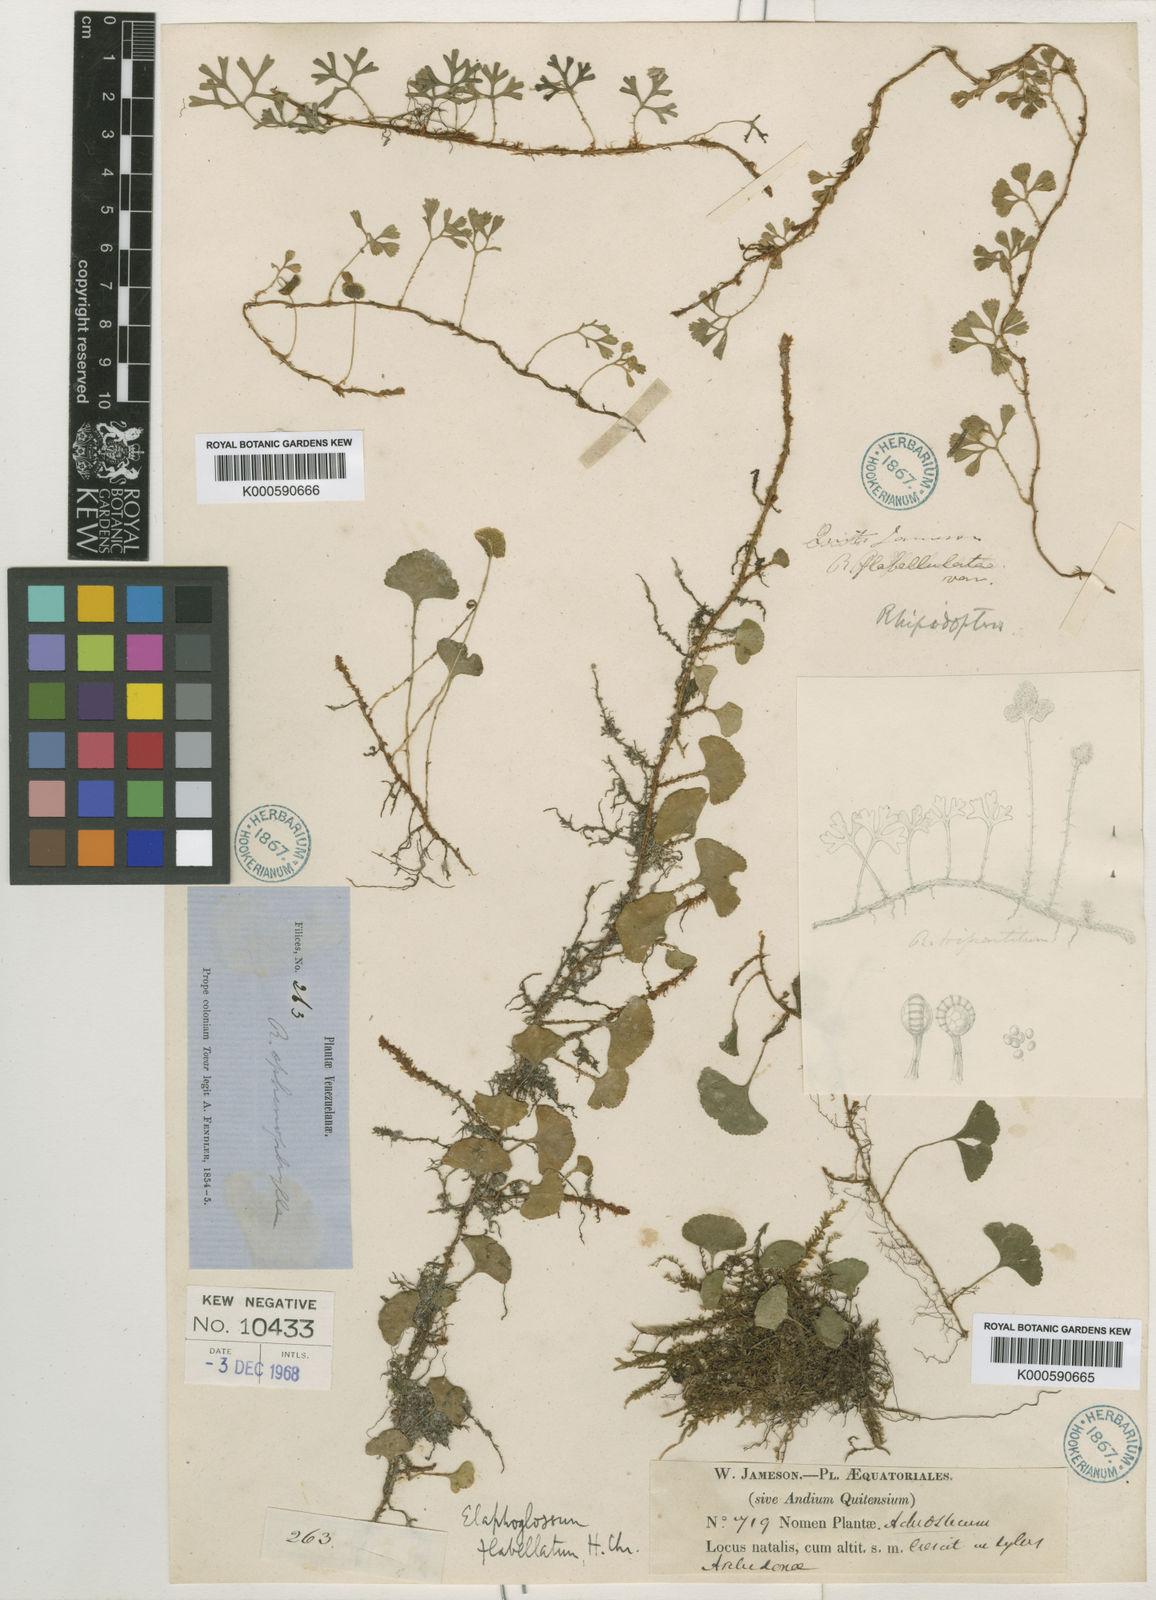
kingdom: Plantae
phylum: Tracheophyta
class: Polypodiopsida
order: Polypodiales
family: Dryopteridaceae
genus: Elaphoglossum
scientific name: Elaphoglossum tripartitum
